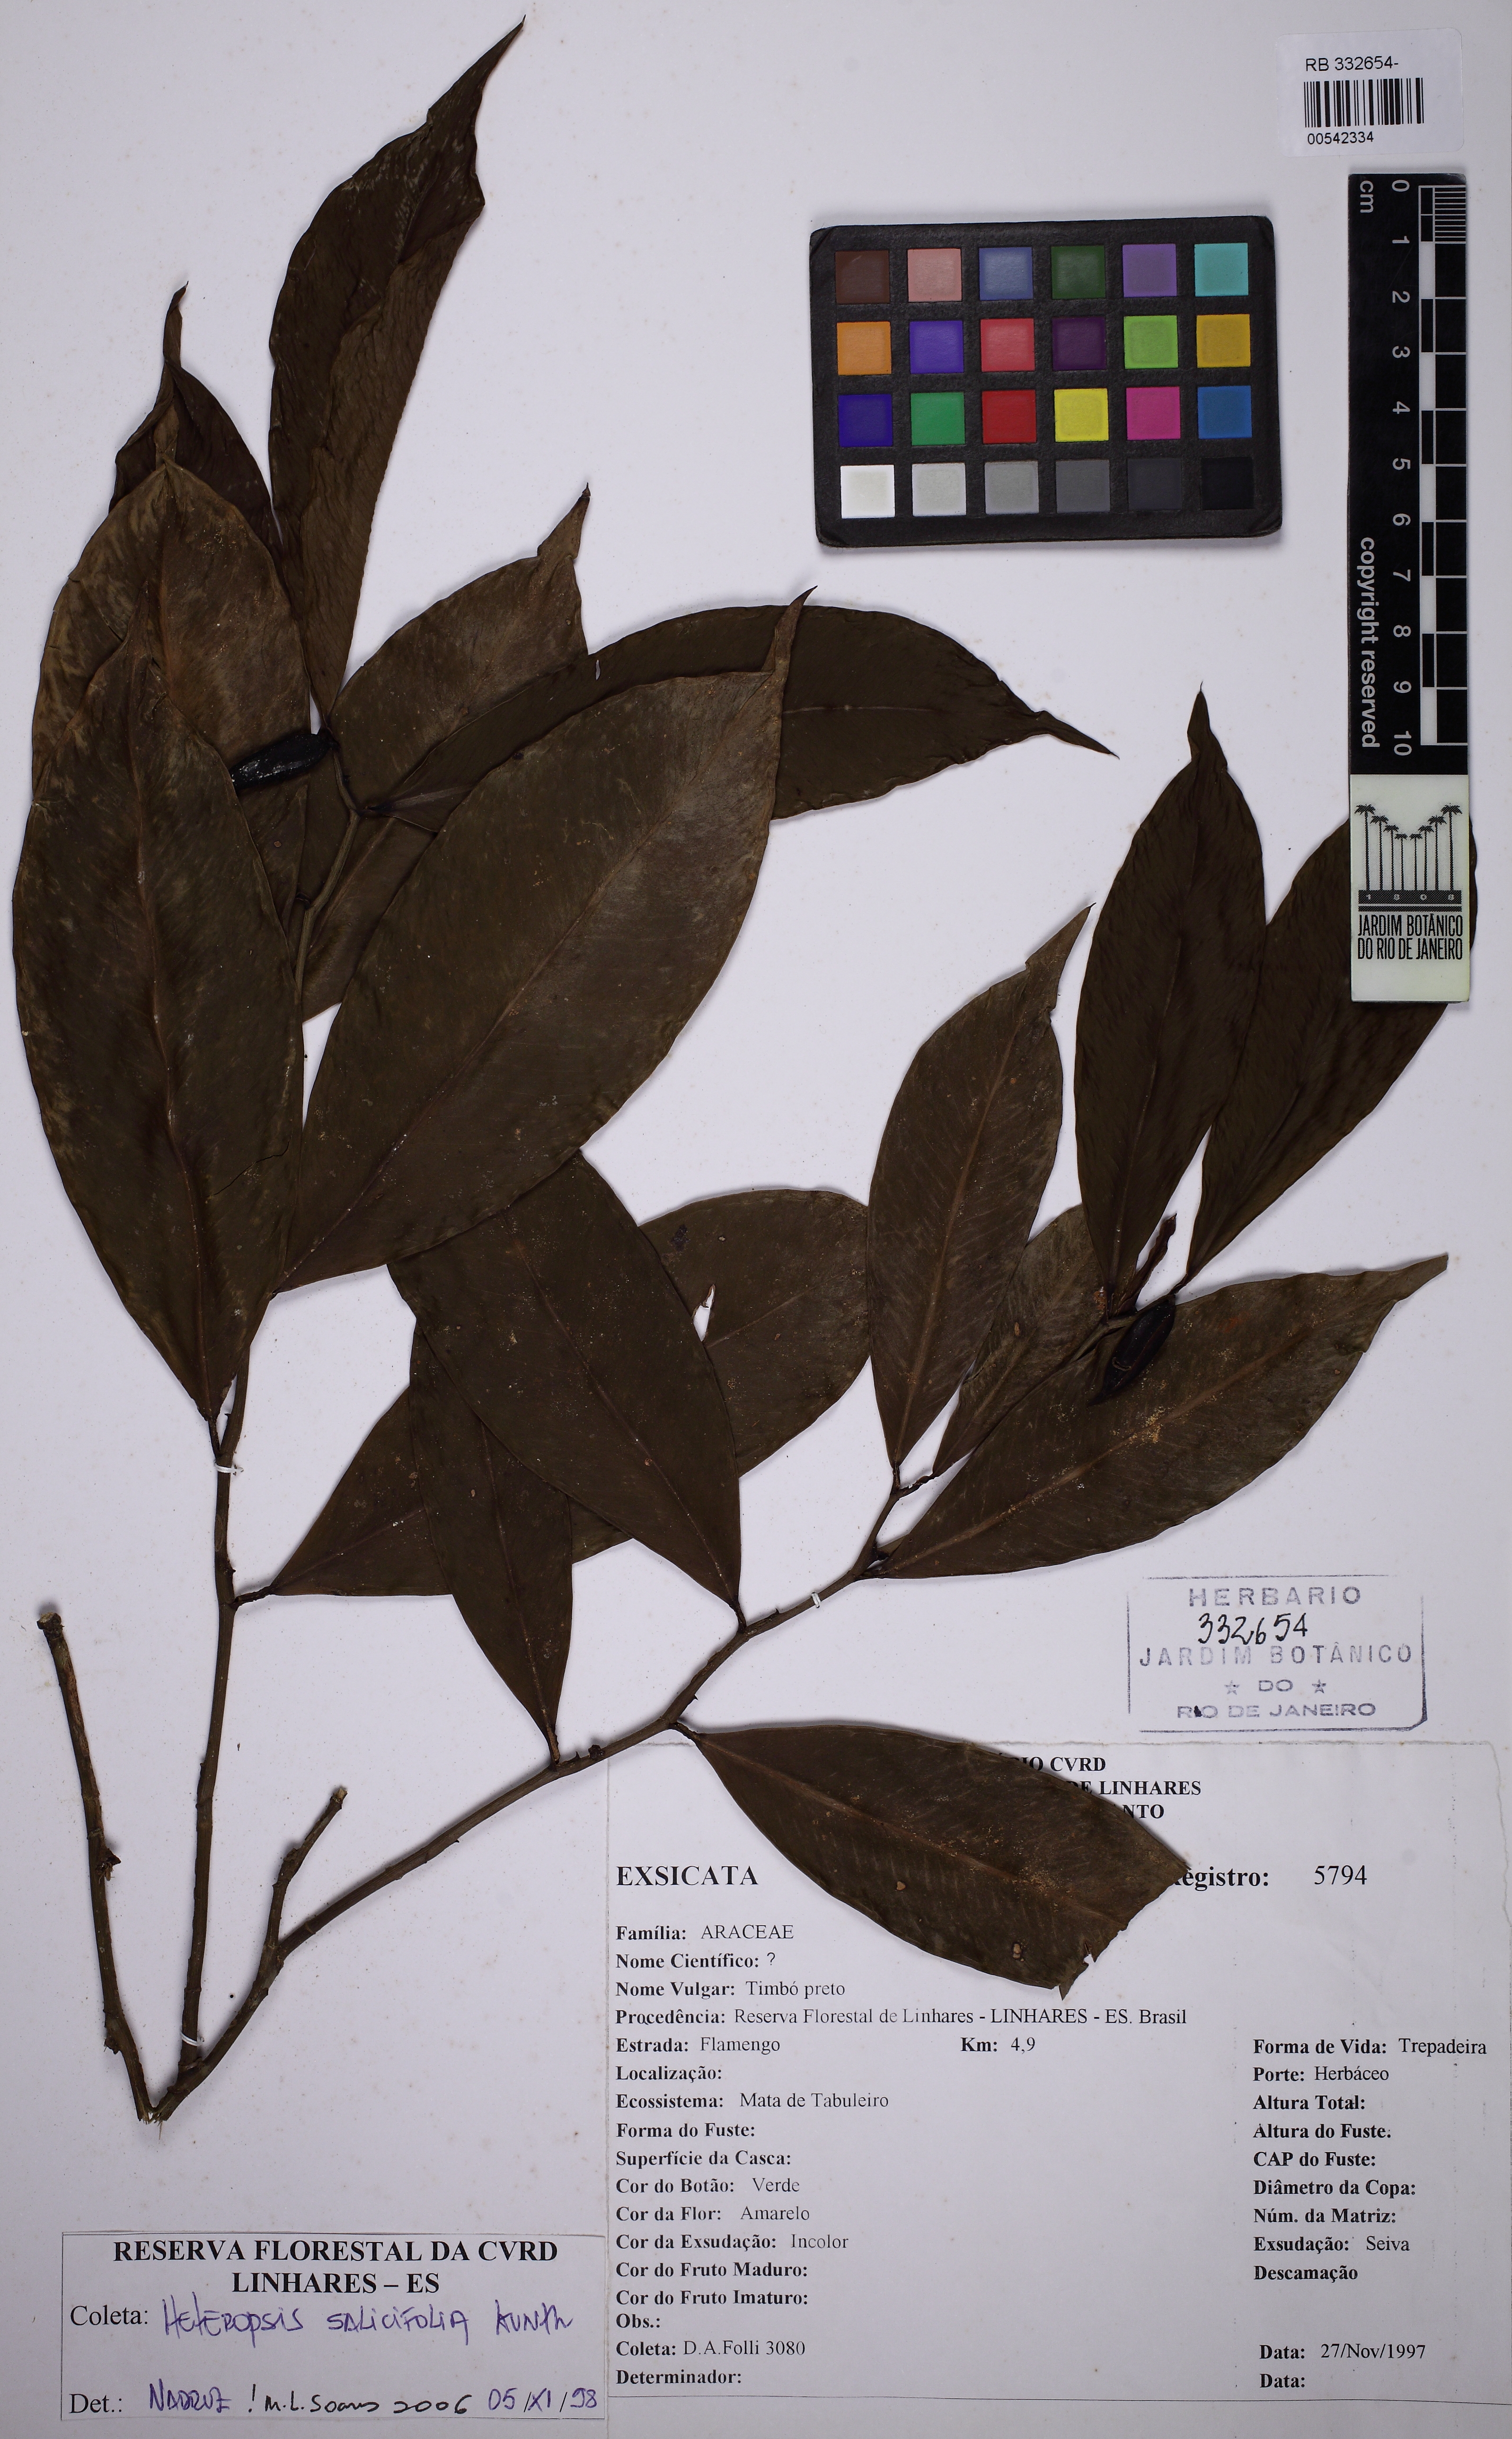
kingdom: Plantae
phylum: Tracheophyta
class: Liliopsida
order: Alismatales
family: Araceae
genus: Heteropsis
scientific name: Heteropsis salicifolia
